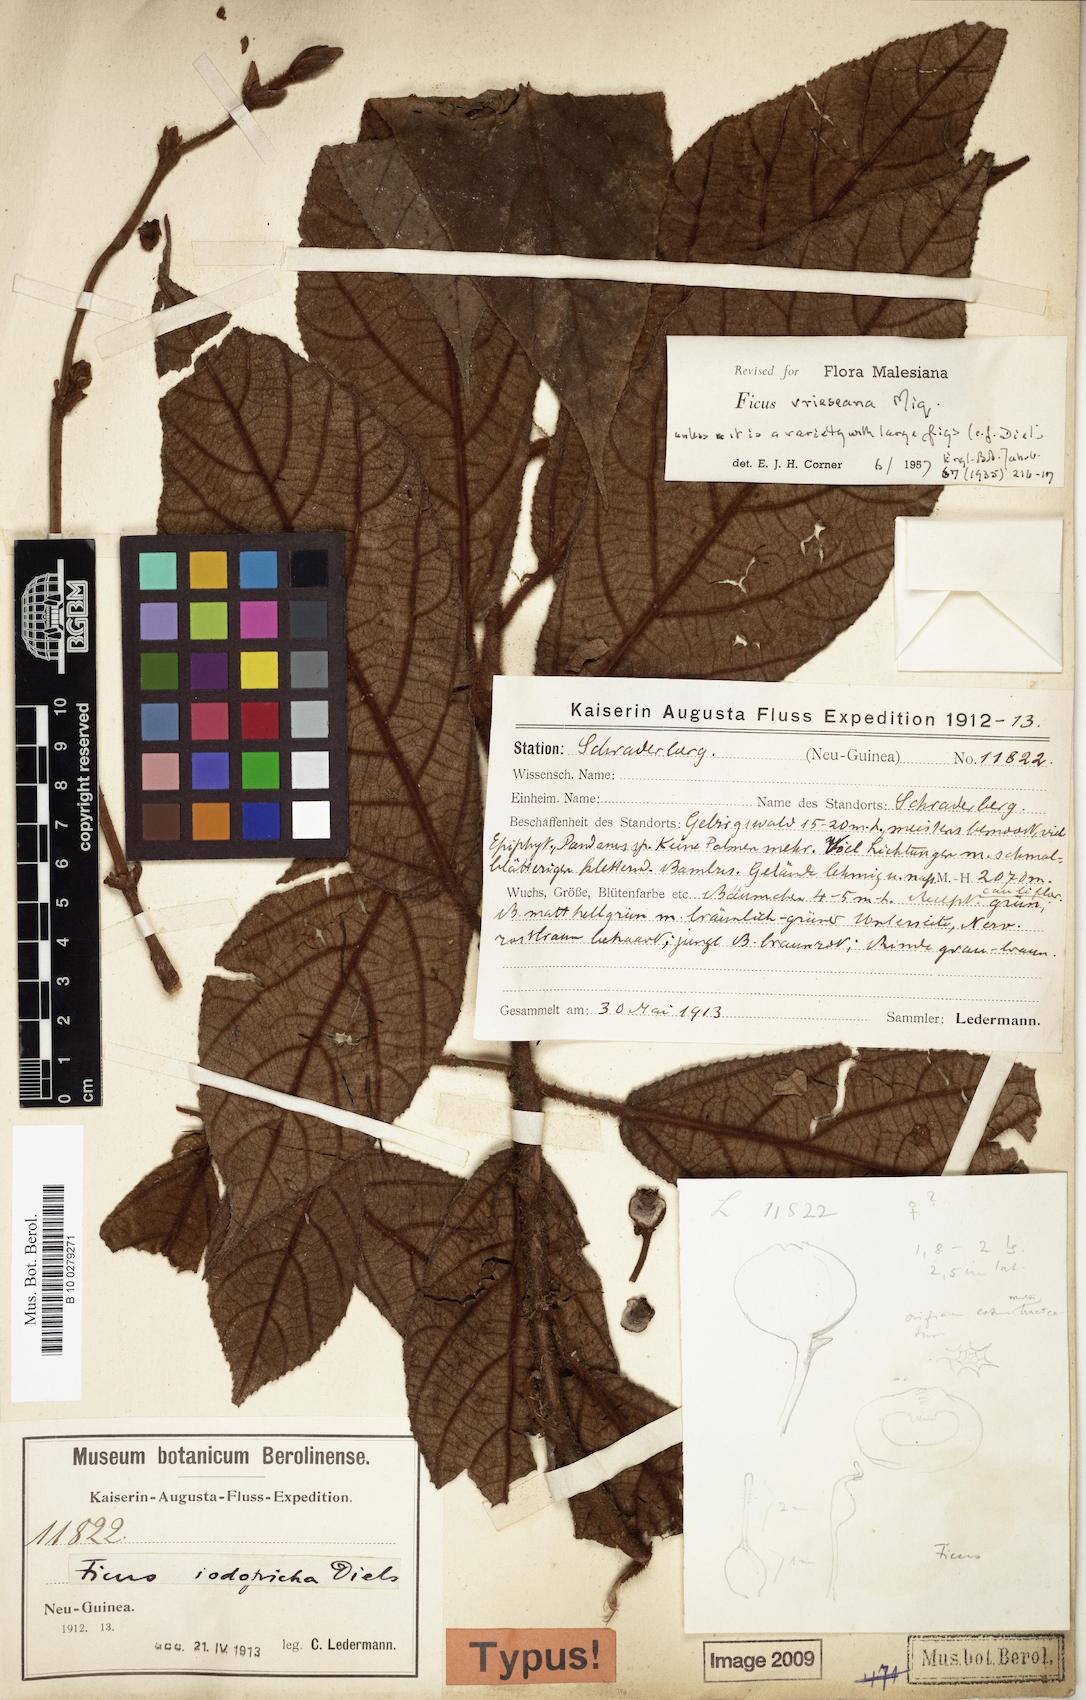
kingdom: Plantae
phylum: Tracheophyta
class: Magnoliopsida
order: Rosales
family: Moraceae
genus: Ficus
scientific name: Ficus vrieseana
